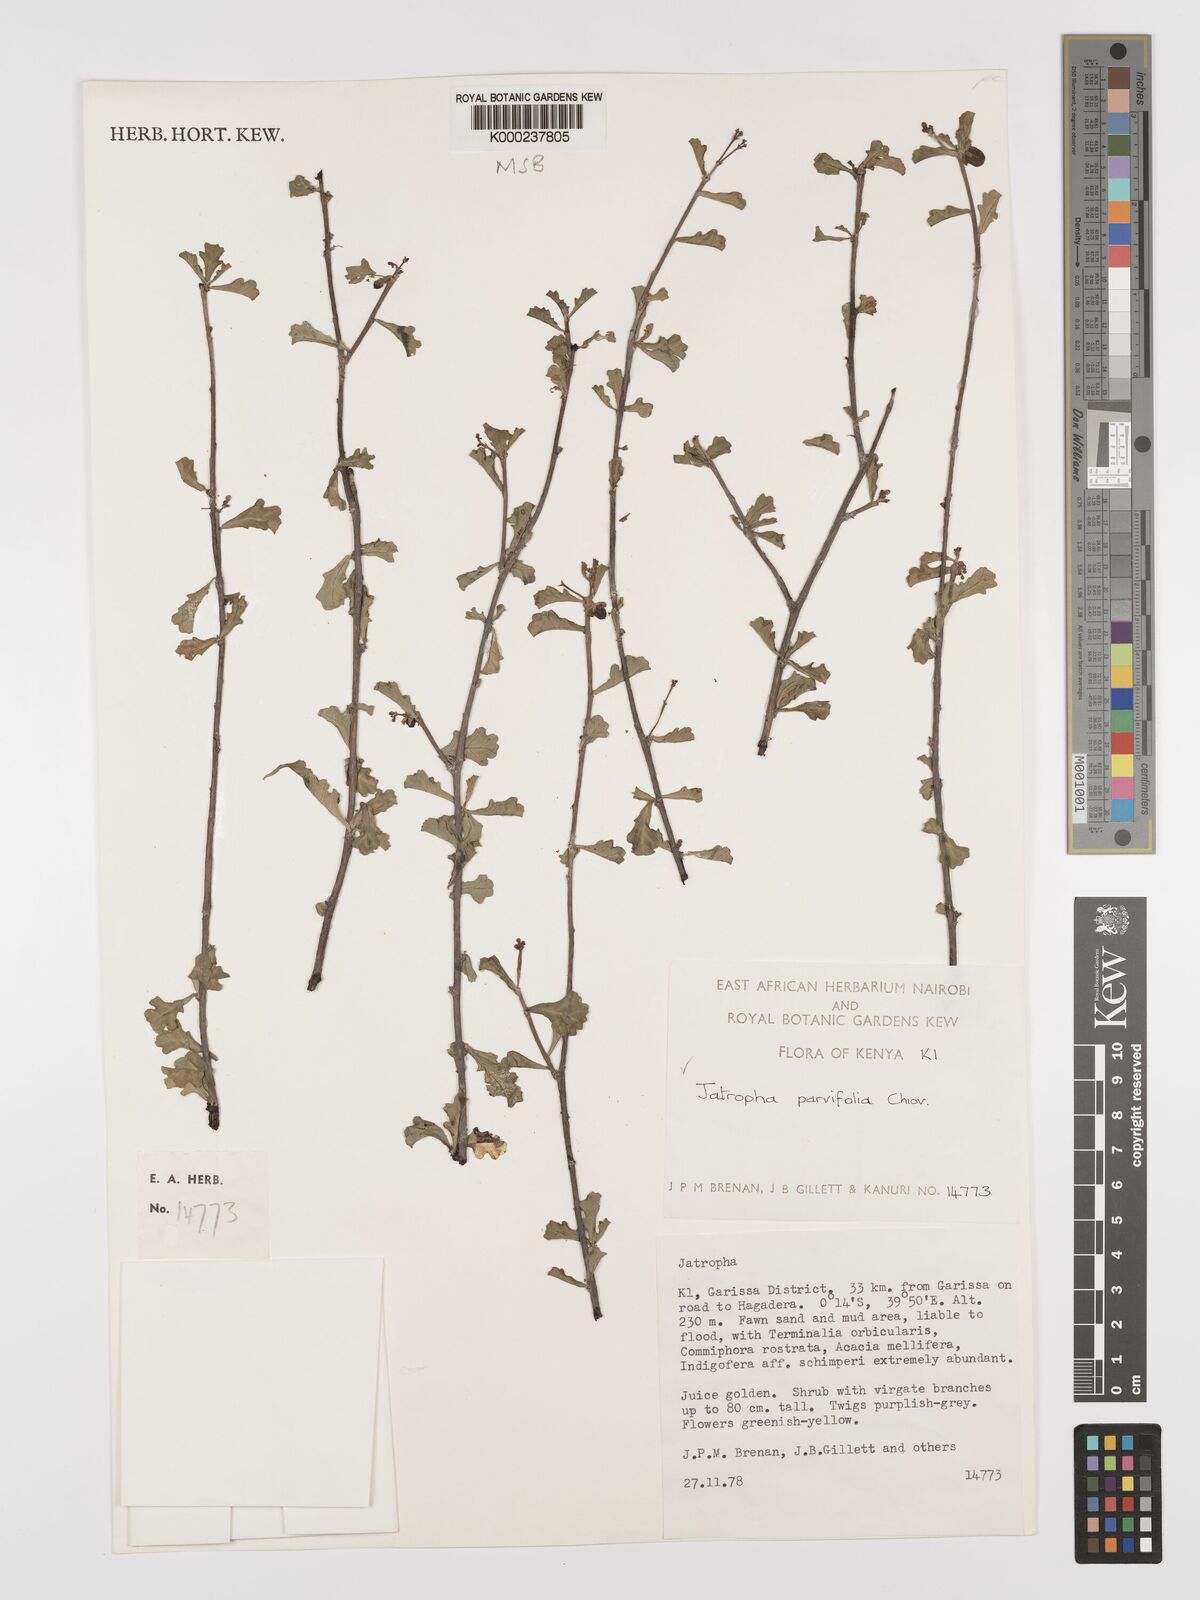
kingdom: Plantae
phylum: Tracheophyta
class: Magnoliopsida
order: Malpighiales
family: Euphorbiaceae
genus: Jatropha
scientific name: Jatropha
